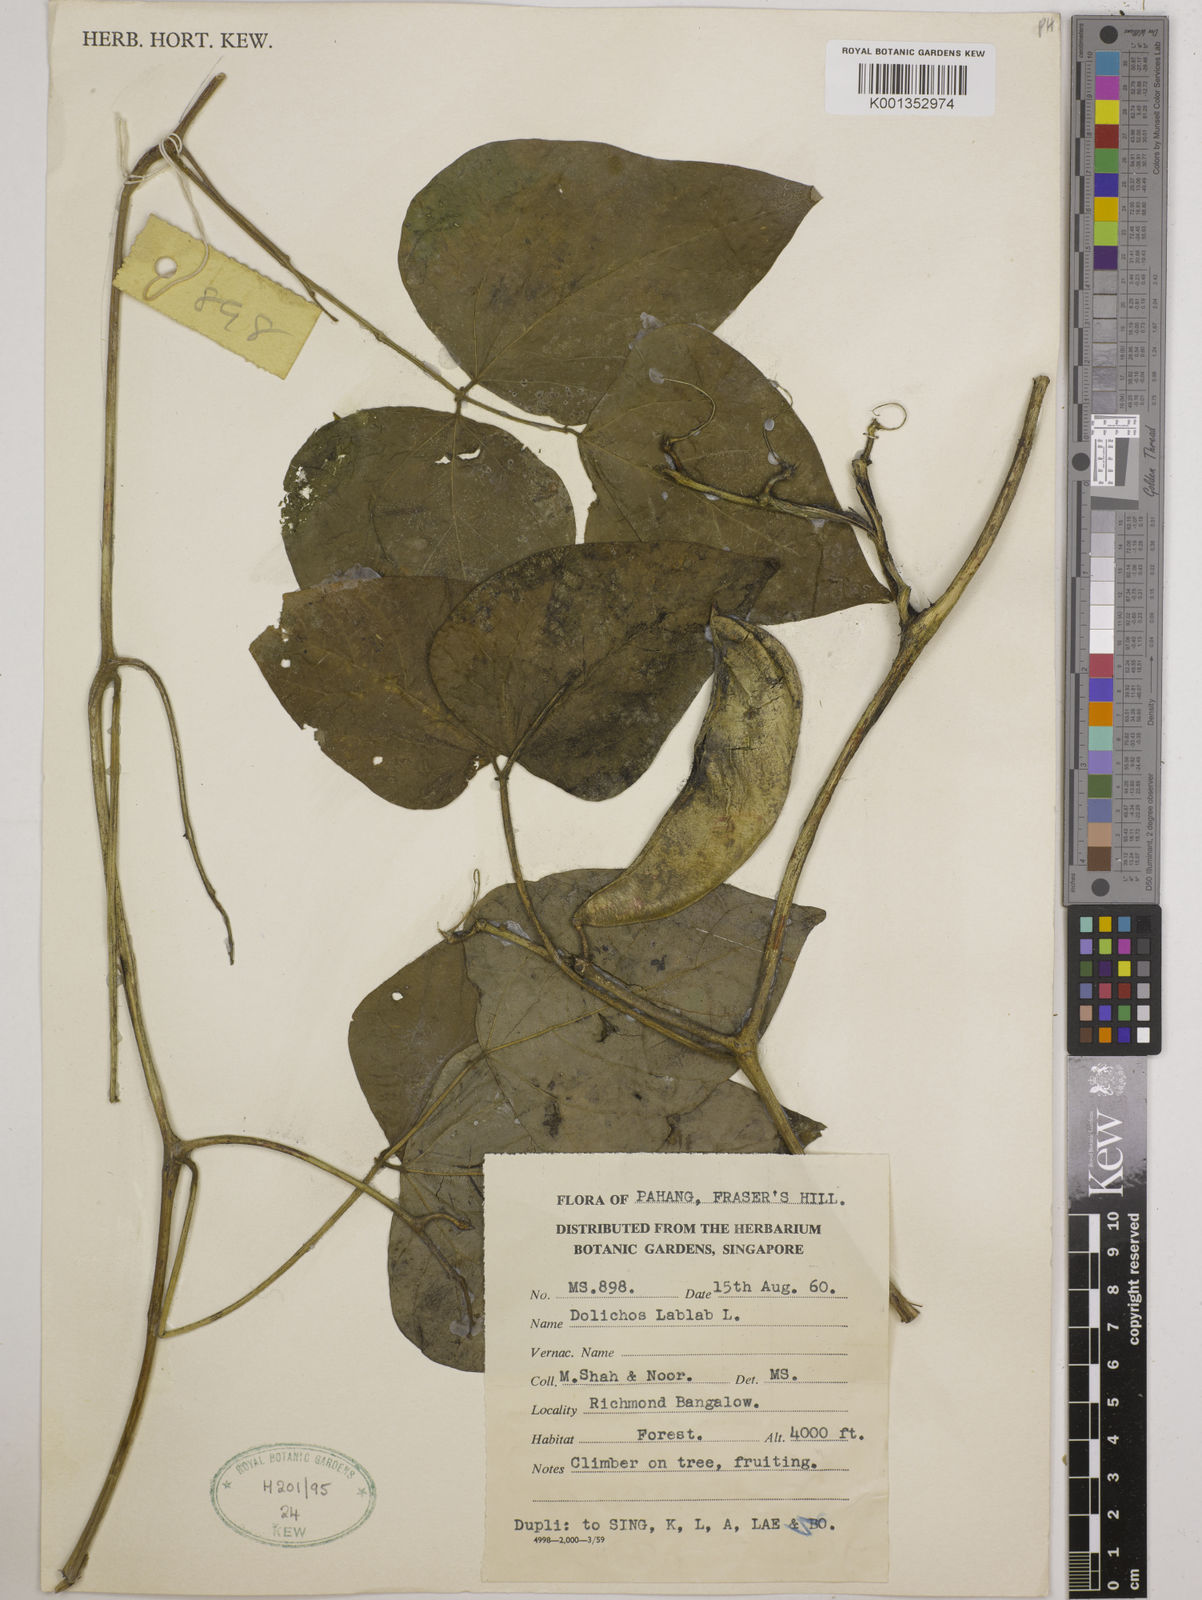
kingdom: Plantae
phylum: Tracheophyta
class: Magnoliopsida
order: Fabales
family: Fabaceae
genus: Lablab
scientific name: Lablab purpureus
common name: Lablab-bean
